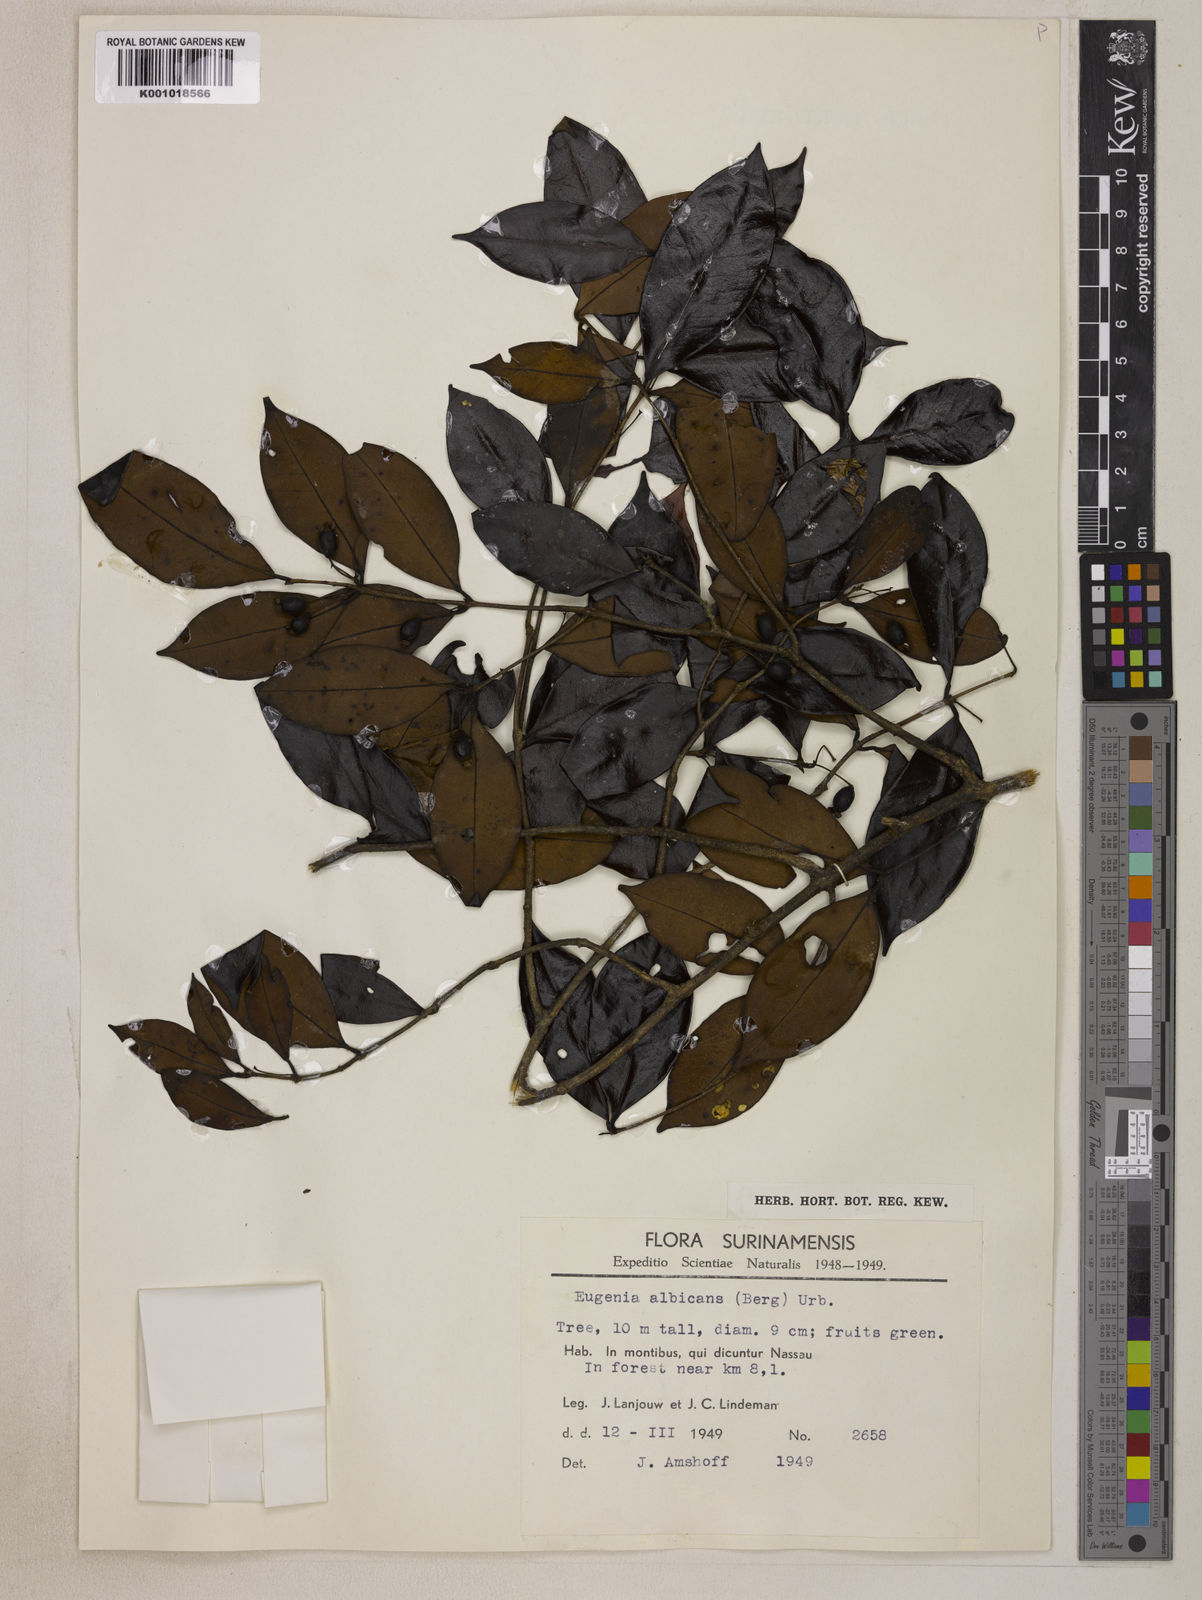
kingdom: Plantae
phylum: Tracheophyta
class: Magnoliopsida
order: Myrtales
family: Myrtaceae
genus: Eugenia
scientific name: Eugenia albicans
